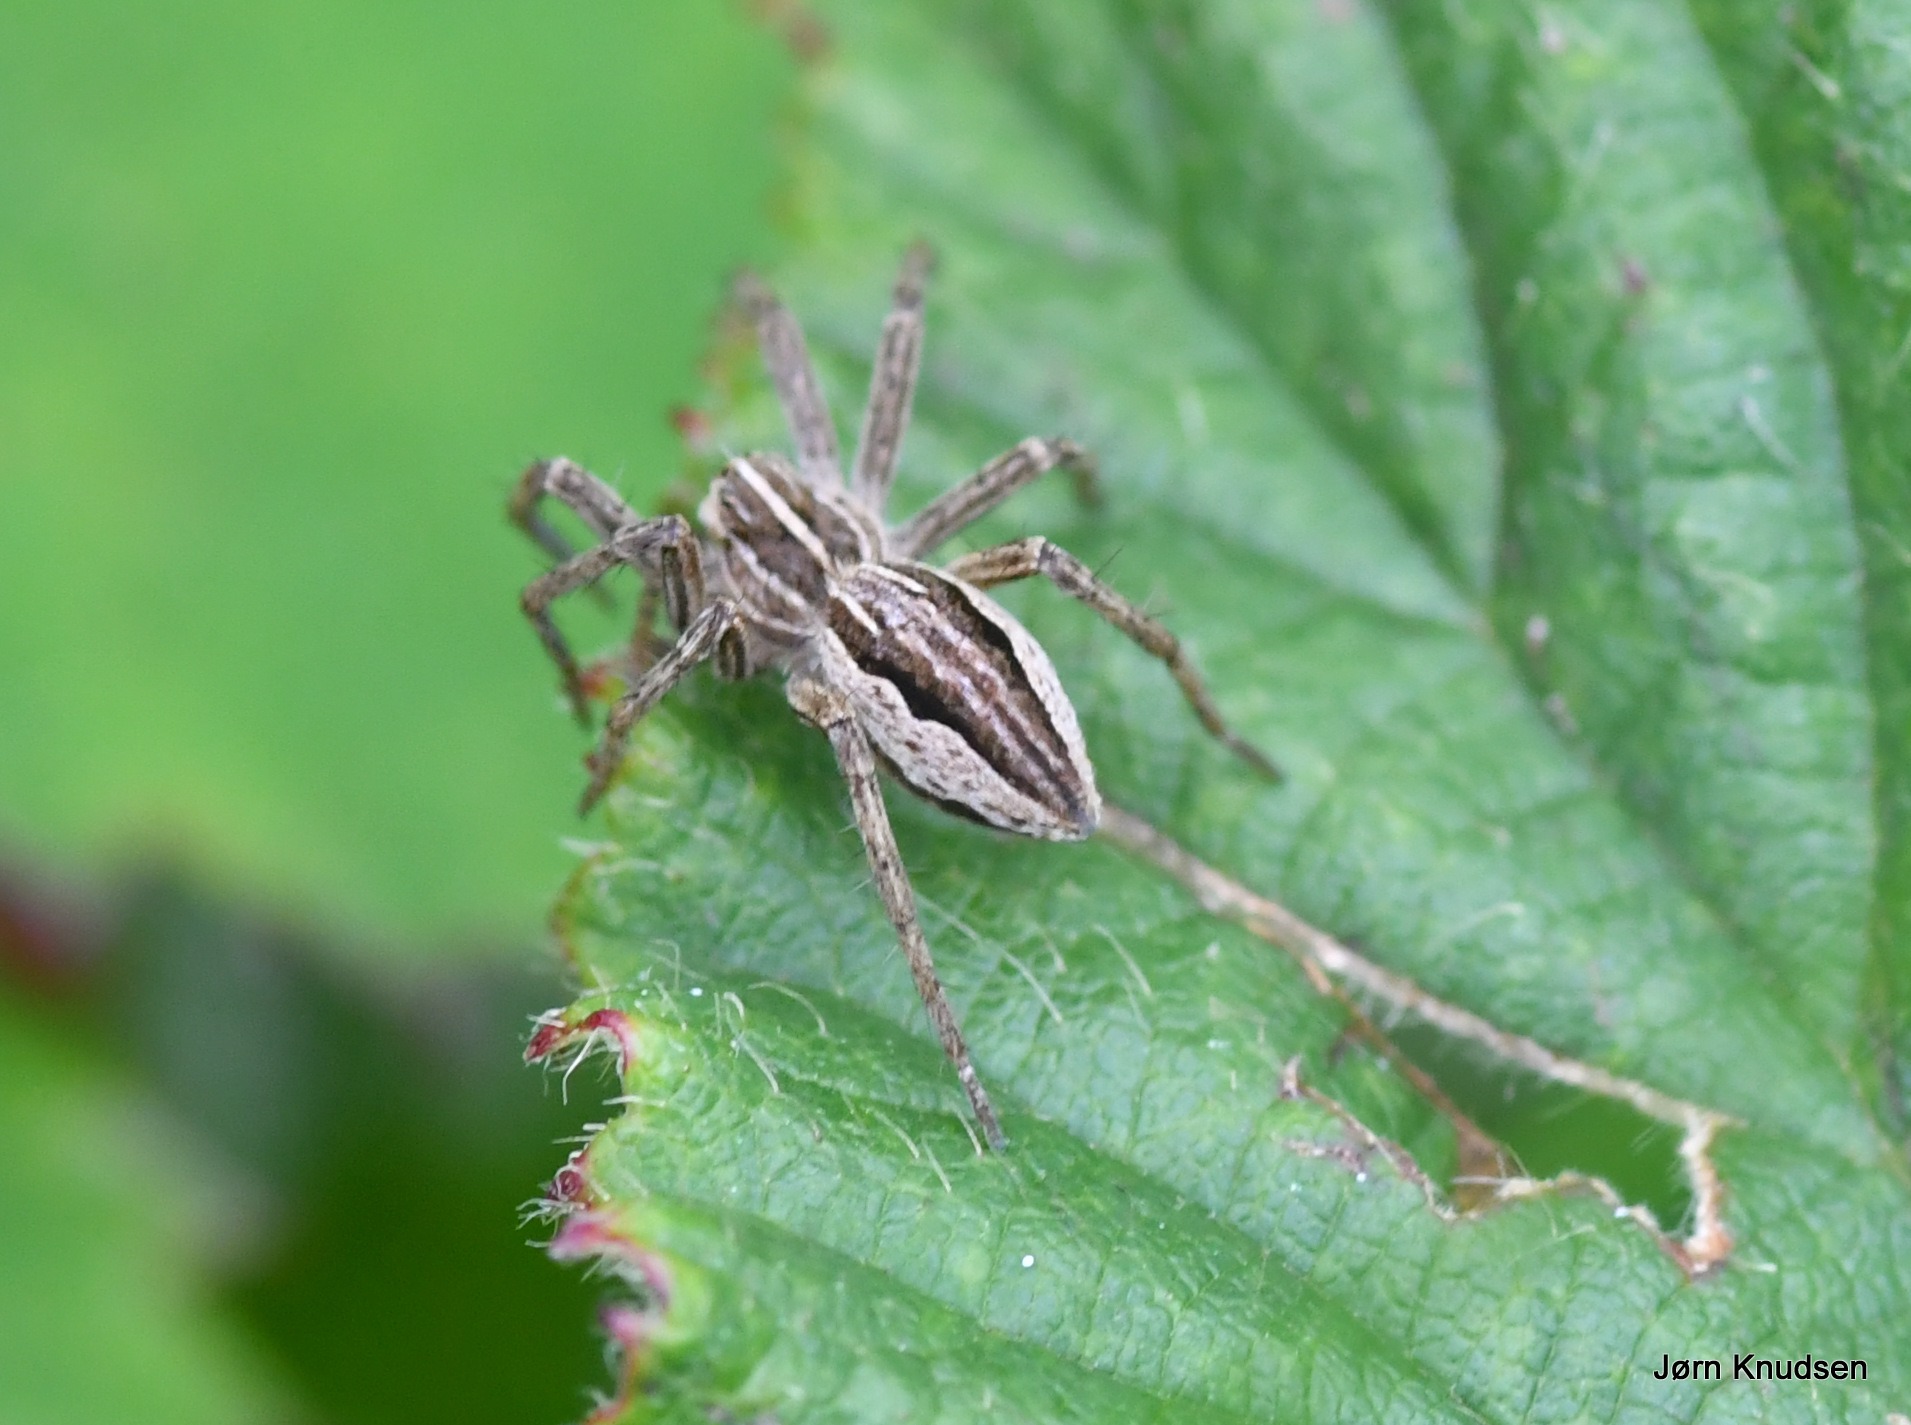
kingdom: Animalia
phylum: Arthropoda
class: Arachnida
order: Araneae
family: Pisauridae
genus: Pisaura
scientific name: Pisaura mirabilis
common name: Almindelig rovedderkop
